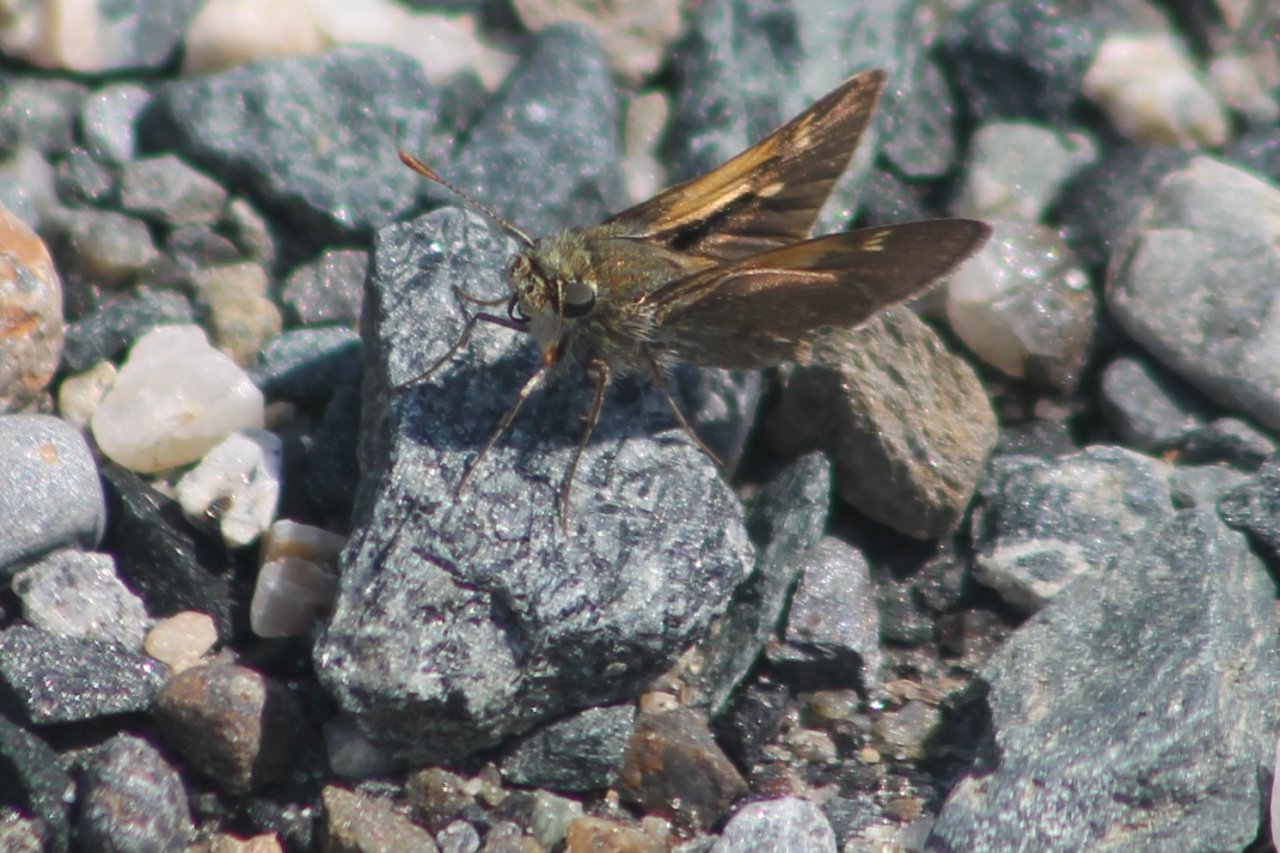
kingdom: Animalia
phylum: Arthropoda
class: Insecta
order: Lepidoptera
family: Hesperiidae
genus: Euphyes
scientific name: Euphyes vestris
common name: Dun Skipper
